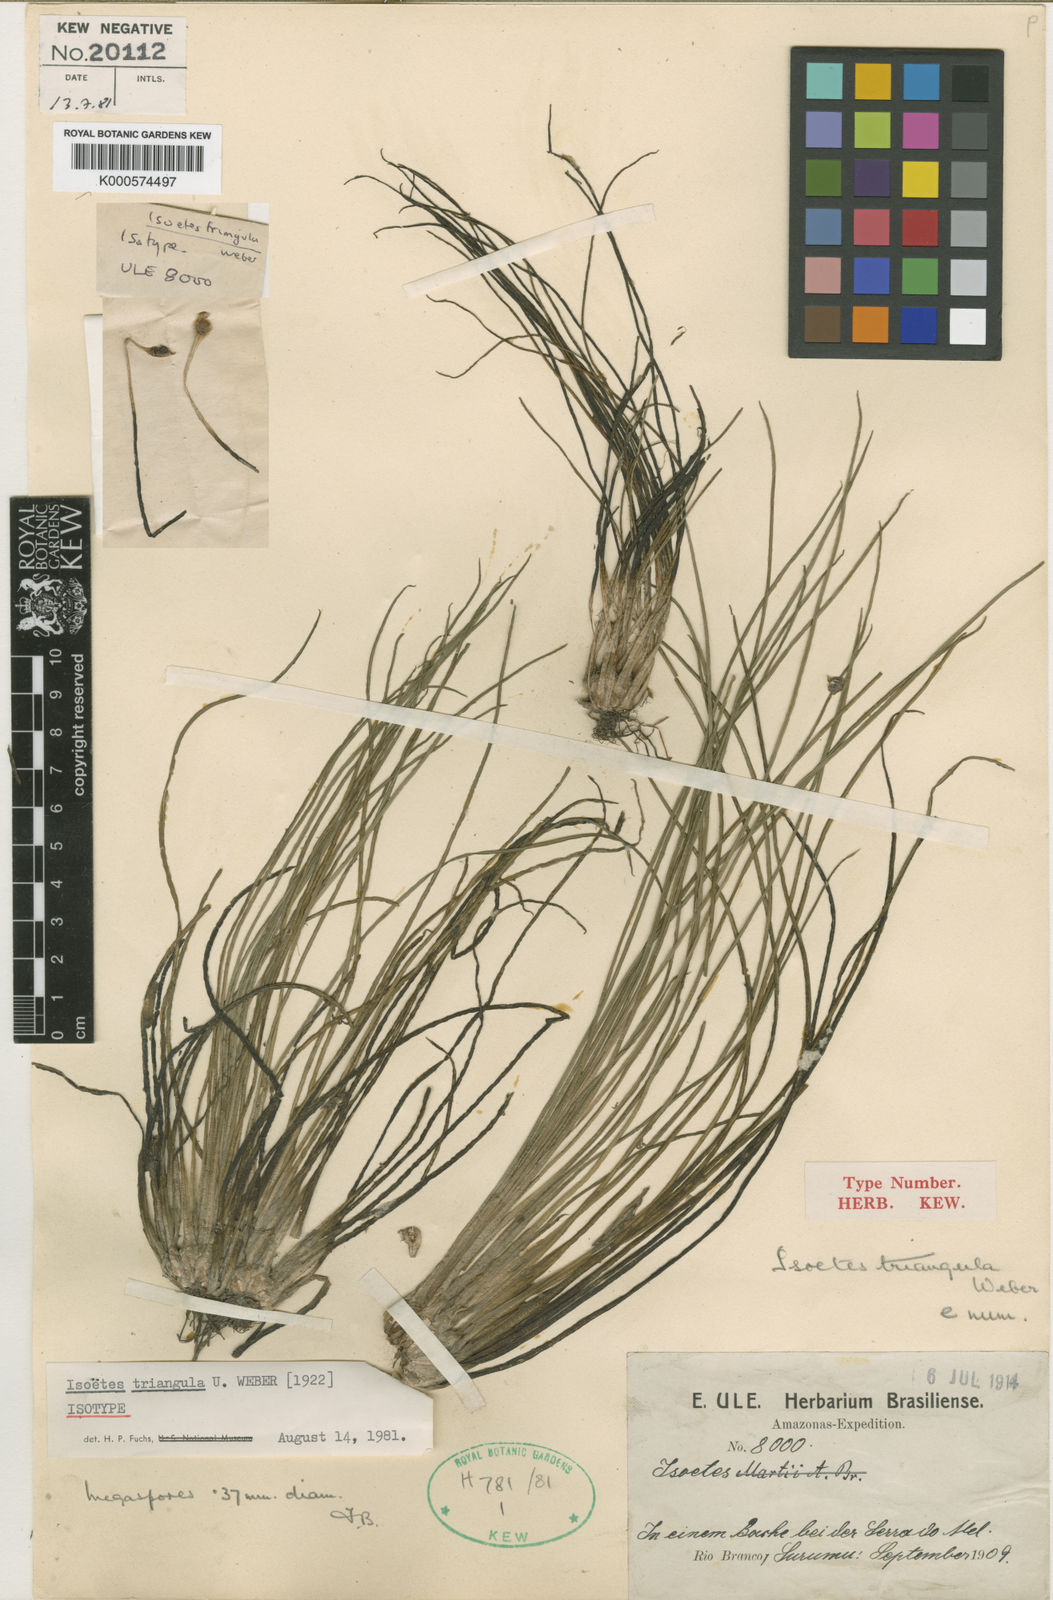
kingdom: Plantae
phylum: Tracheophyta
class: Lycopodiopsida
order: Isoetales
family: Isoetaceae
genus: Isoetes
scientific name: Isoetes triangula
